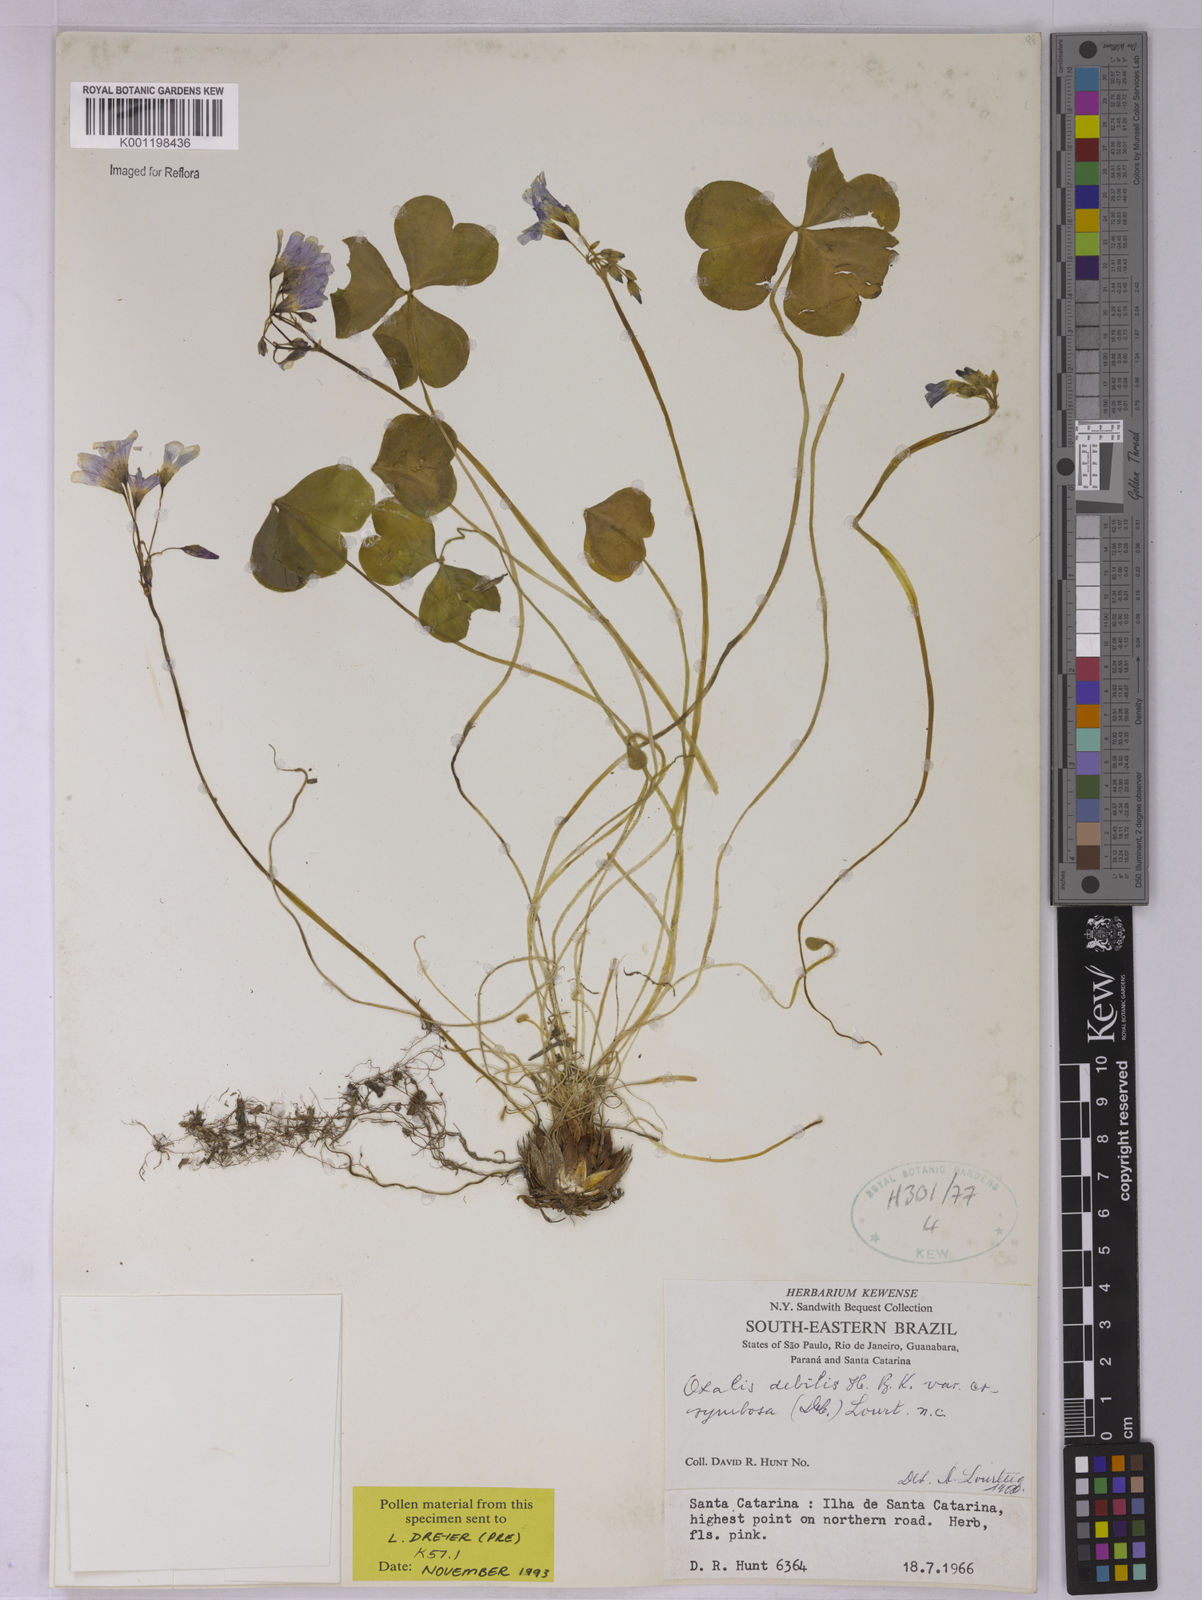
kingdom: Plantae
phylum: Tracheophyta
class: Magnoliopsida
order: Oxalidales
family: Oxalidaceae
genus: Oxalis
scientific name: Oxalis debilis
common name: Large-flowered pink-sorrel
